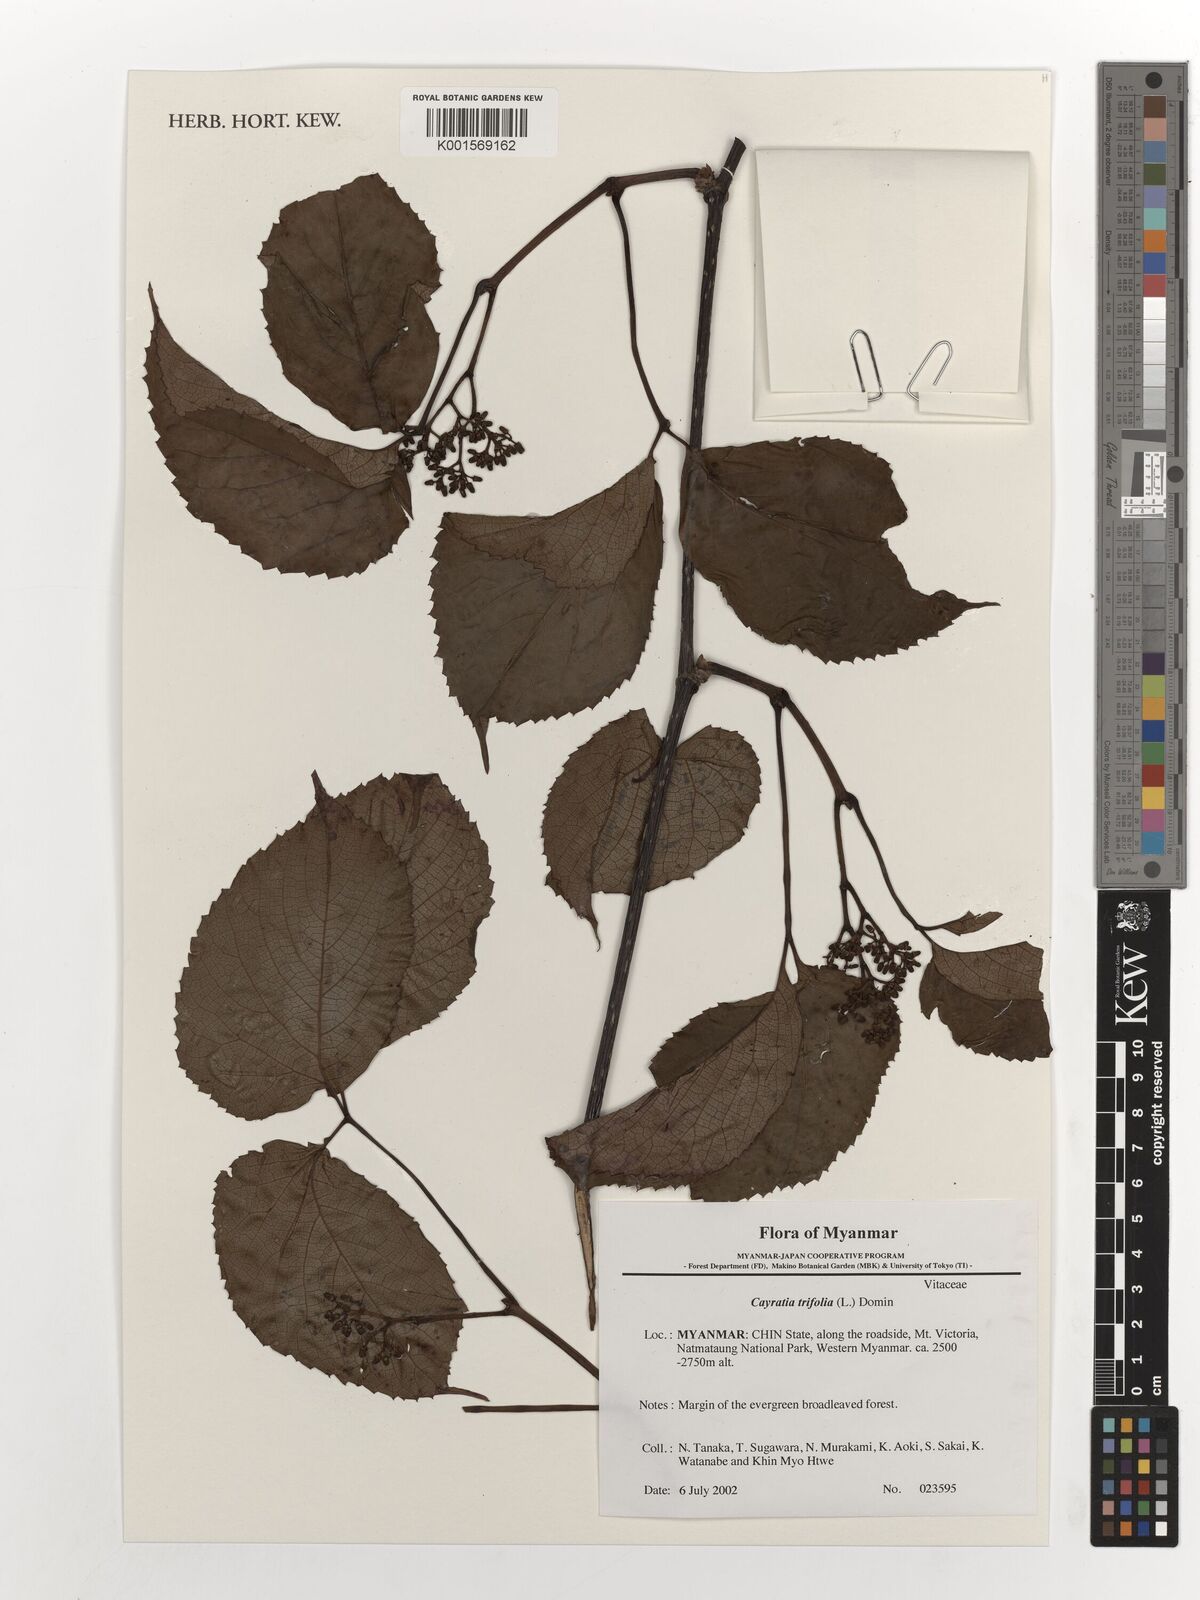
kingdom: Plantae
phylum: Tracheophyta
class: Magnoliopsida
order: Vitales
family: Vitaceae
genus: Causonis
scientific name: Causonis trifolia
